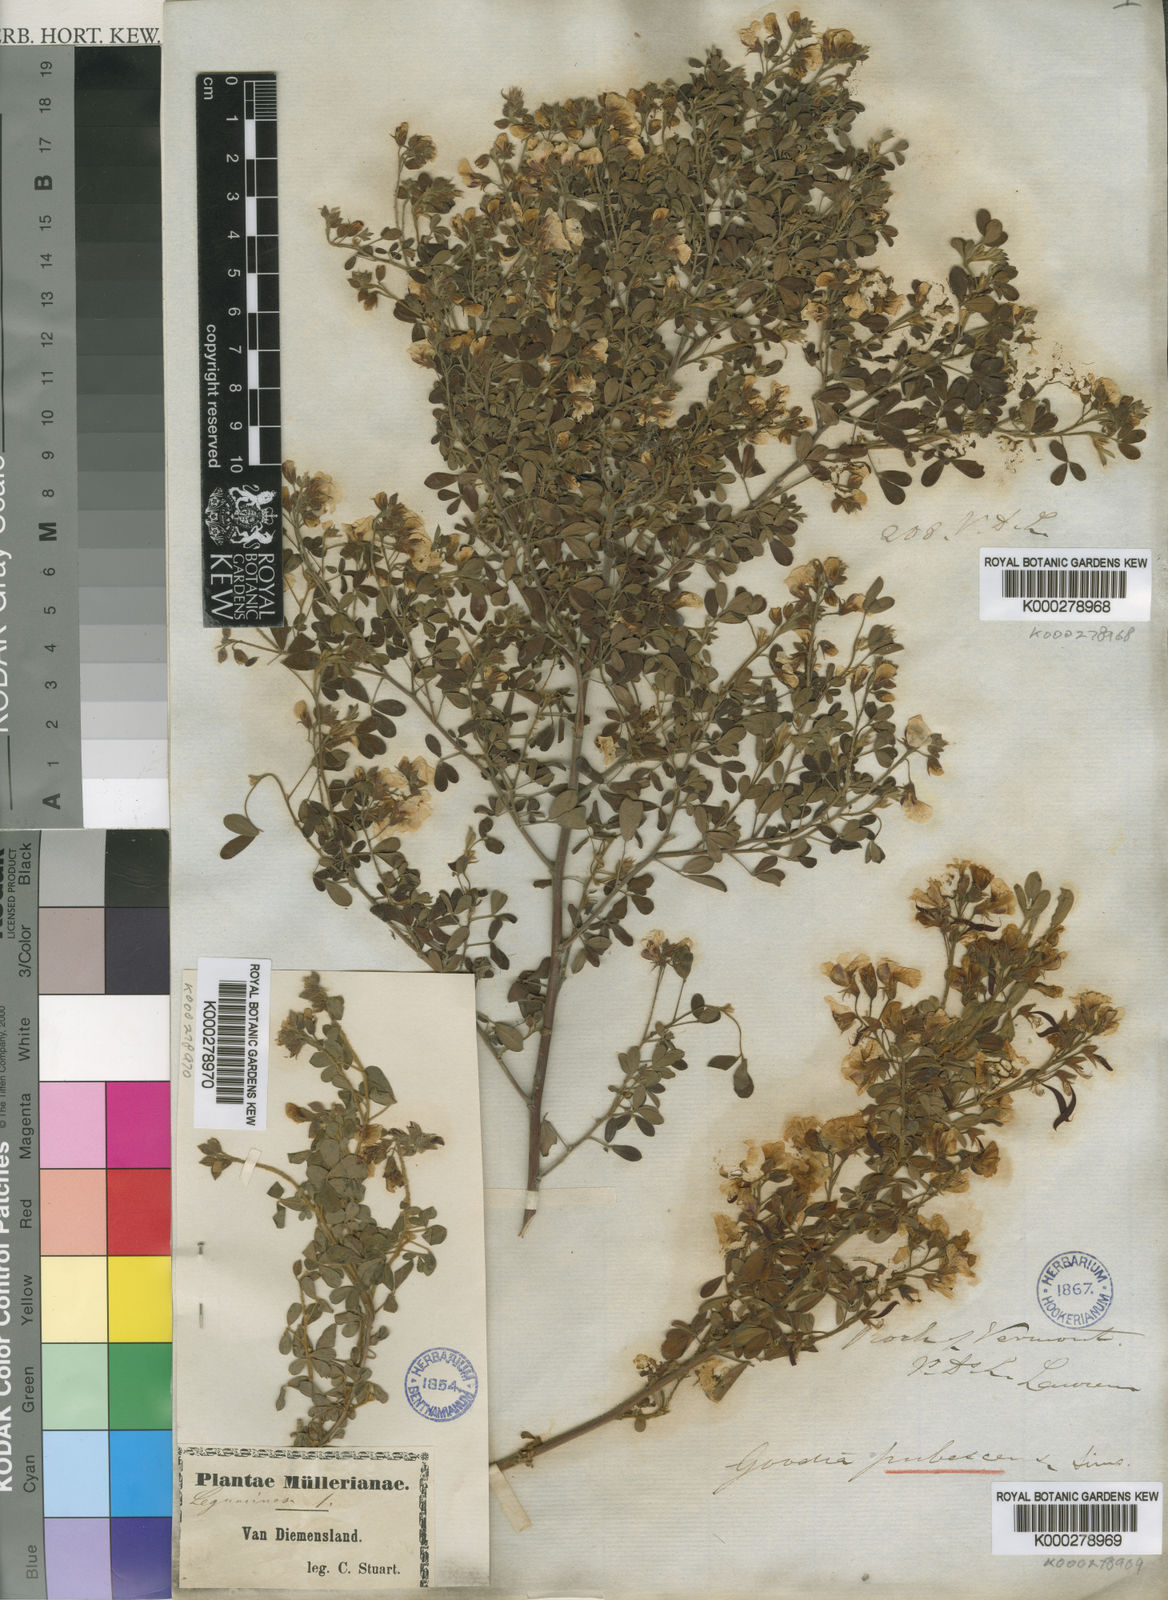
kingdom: Plantae
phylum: Tracheophyta
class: Magnoliopsida
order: Fabales
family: Fabaceae
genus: Goodia
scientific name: Goodia pubescens
